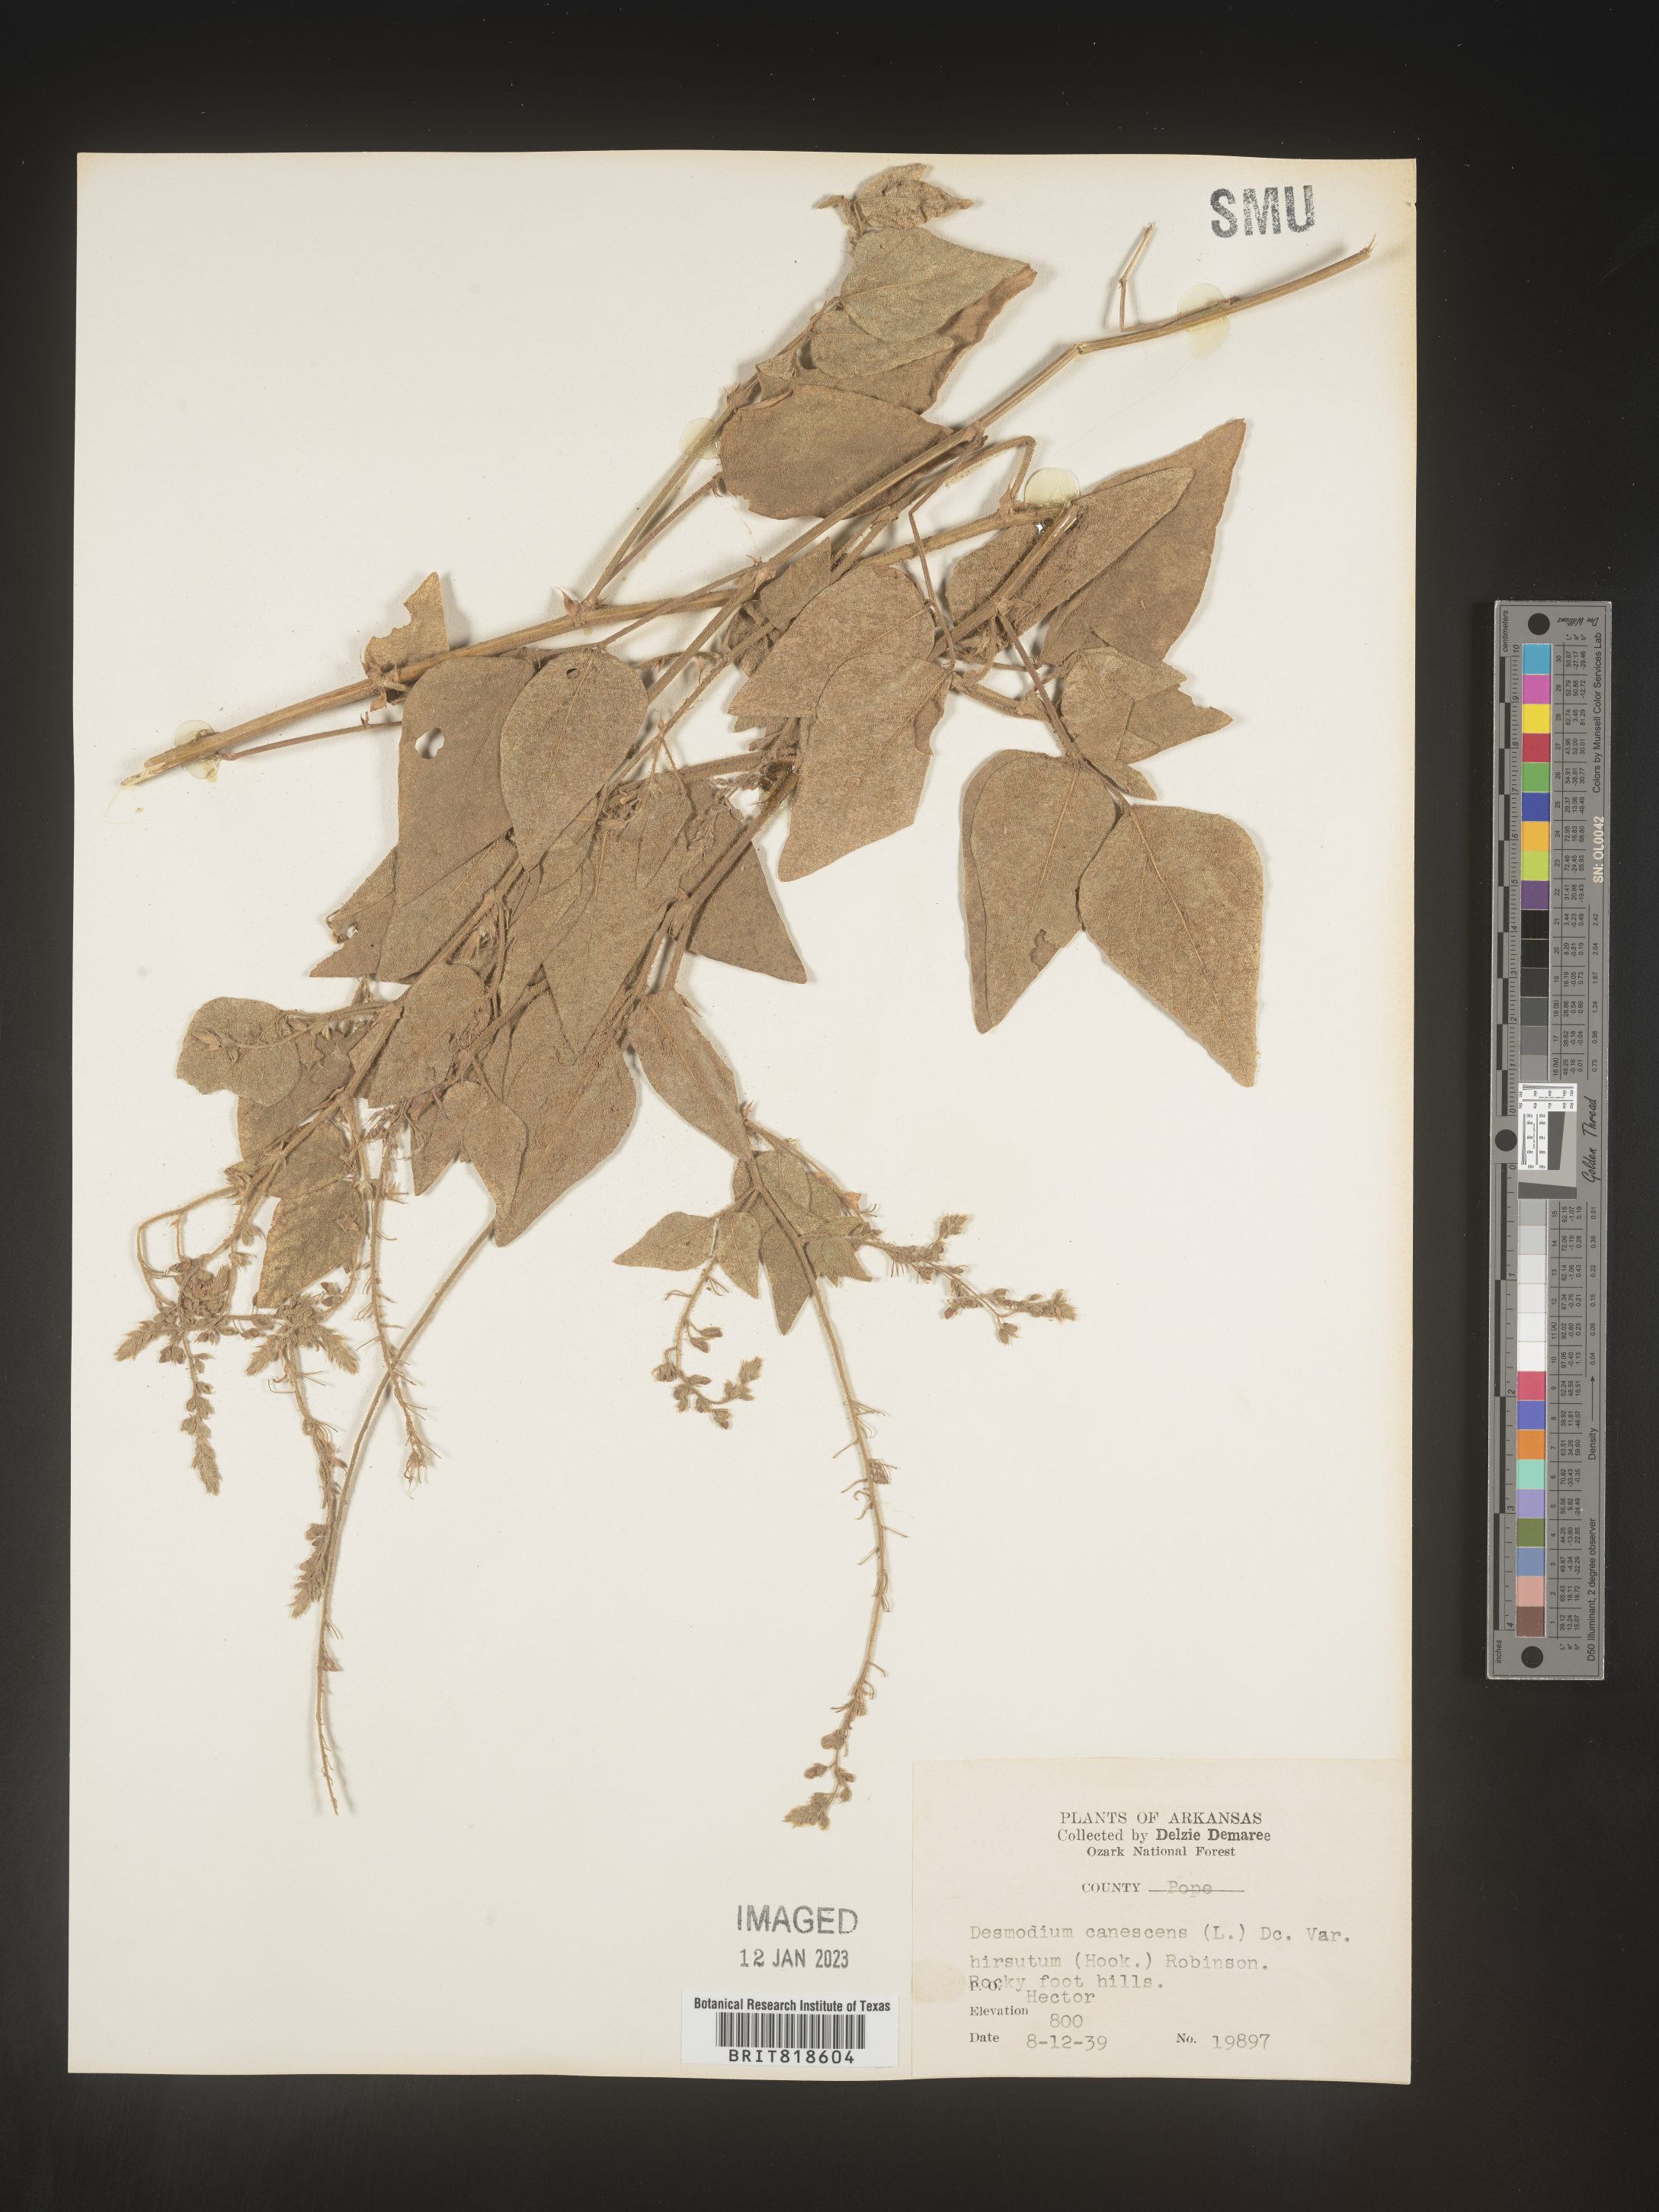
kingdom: Plantae
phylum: Tracheophyta
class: Magnoliopsida
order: Fabales
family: Fabaceae
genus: Desmodium
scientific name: Desmodium canescens
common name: Hoary tick-clover
